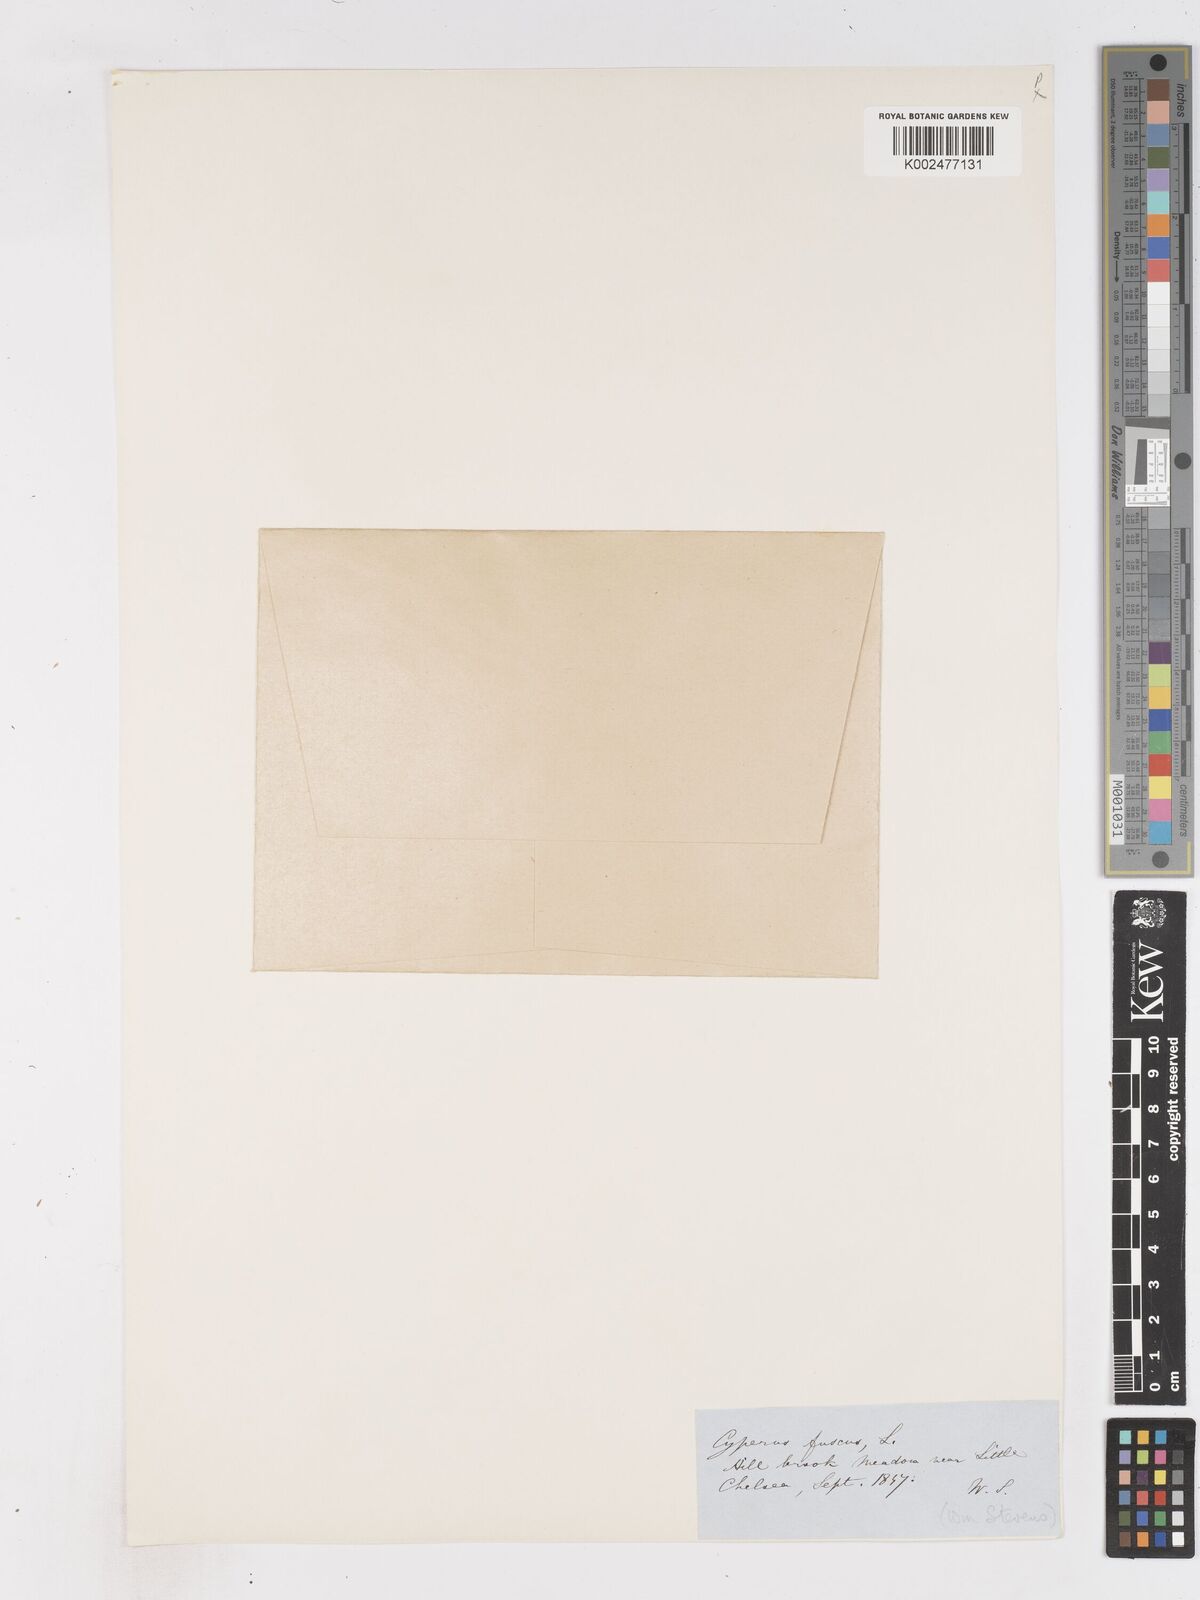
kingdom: Plantae
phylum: Tracheophyta
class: Liliopsida
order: Poales
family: Cyperaceae
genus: Cyperus
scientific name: Cyperus fuscus
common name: Brown galingale
